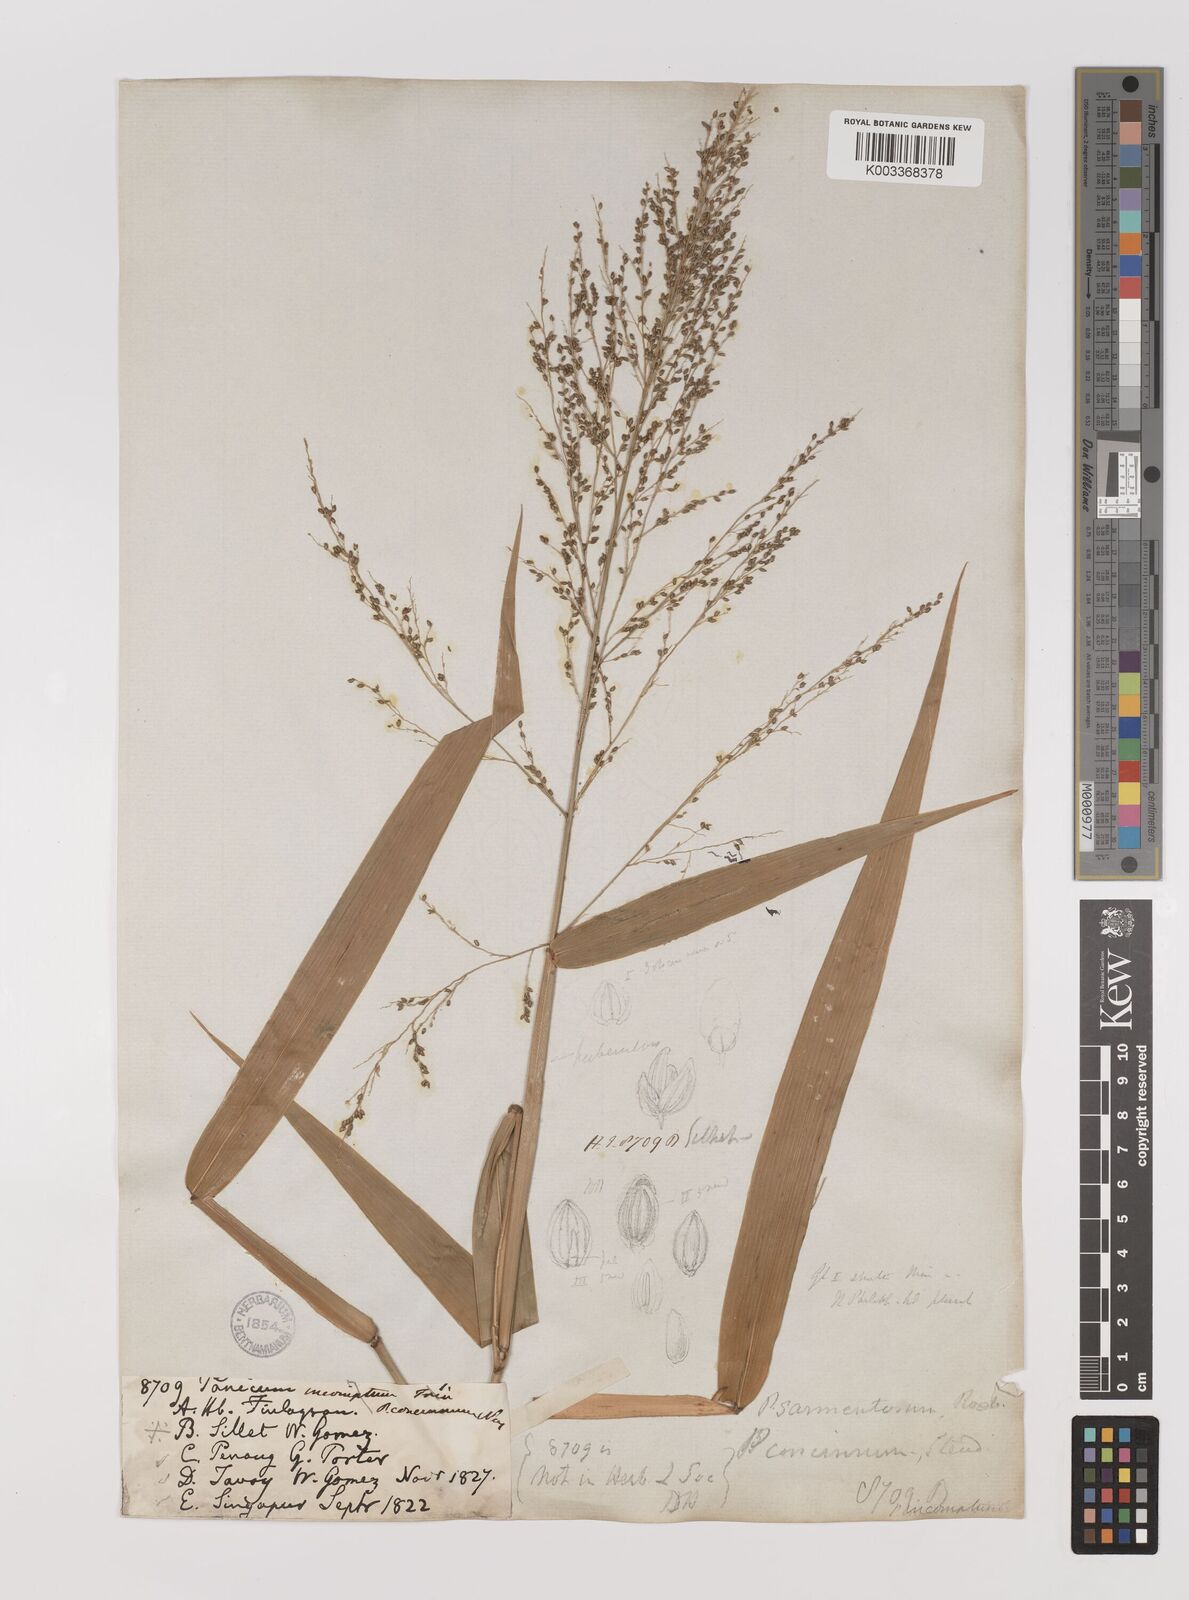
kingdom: Plantae
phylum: Tracheophyta
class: Liliopsida
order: Poales
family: Poaceae
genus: Panicum
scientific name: Panicum sarmentosum
